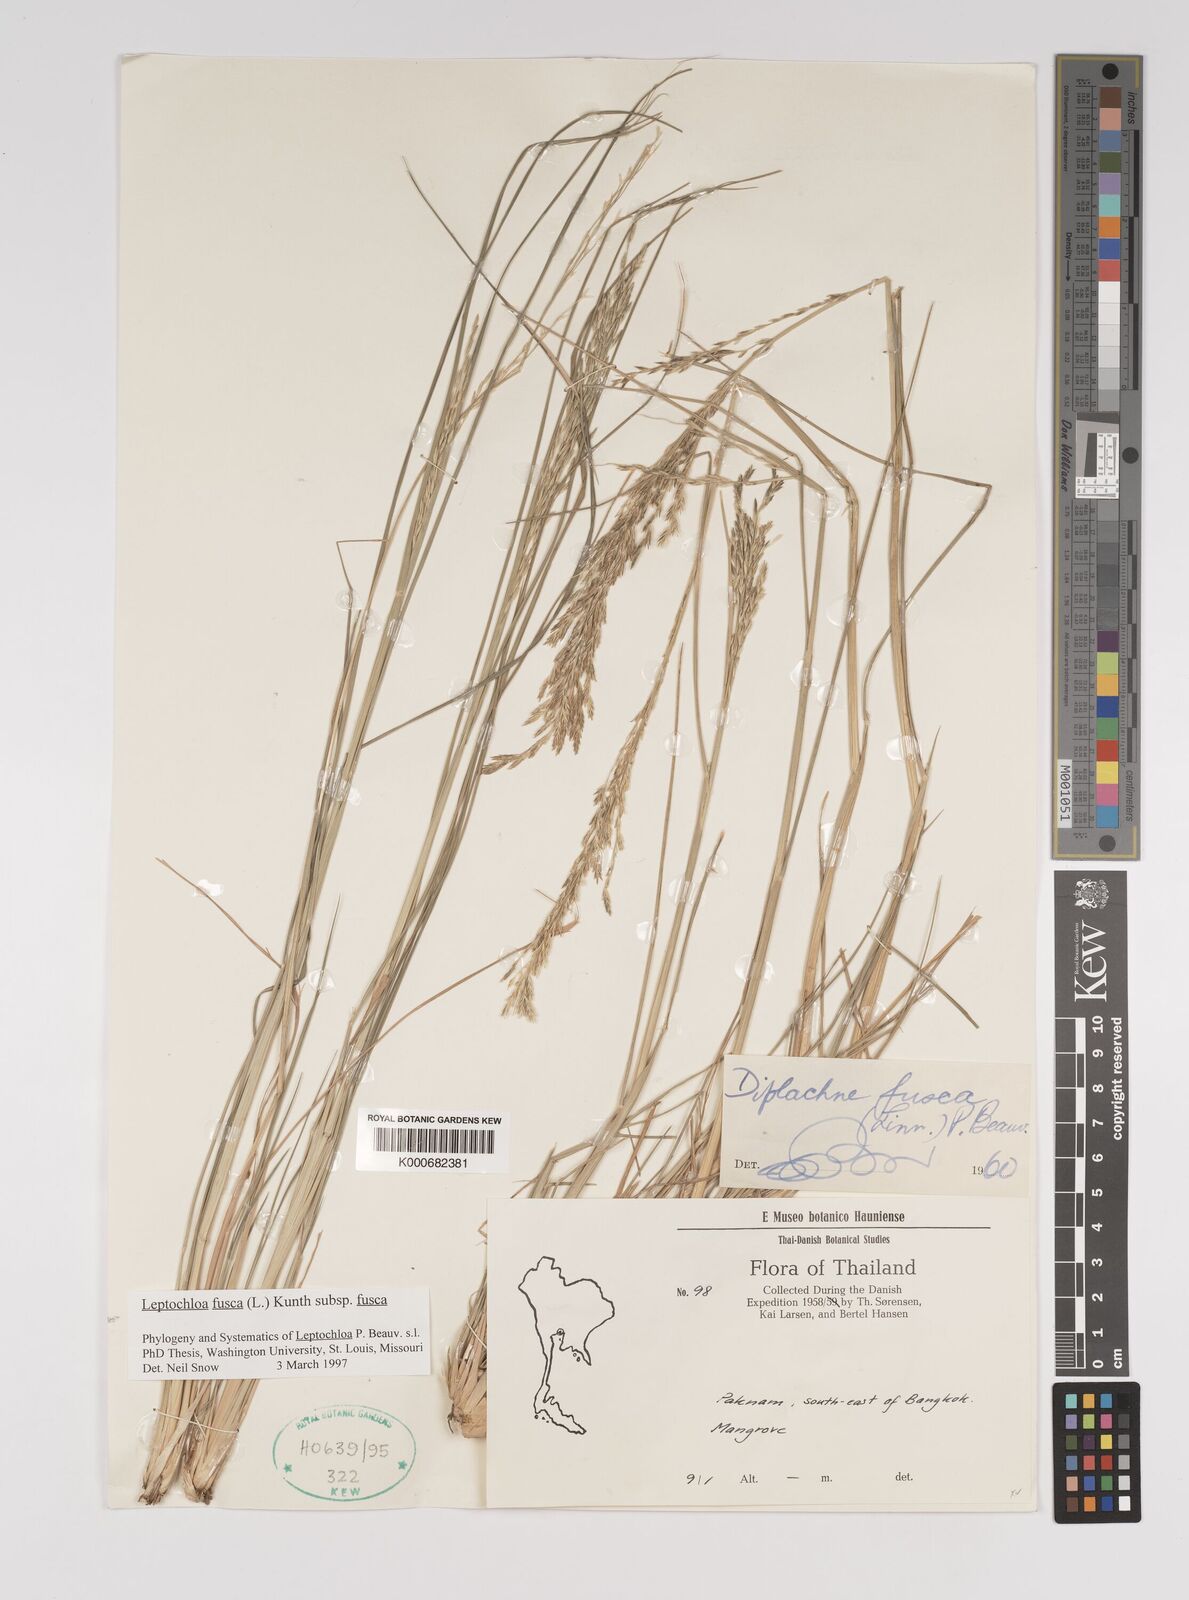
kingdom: Plantae
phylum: Tracheophyta
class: Liliopsida
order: Poales
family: Poaceae
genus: Diplachne
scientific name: Diplachne fusca
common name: Brown beetle grass
